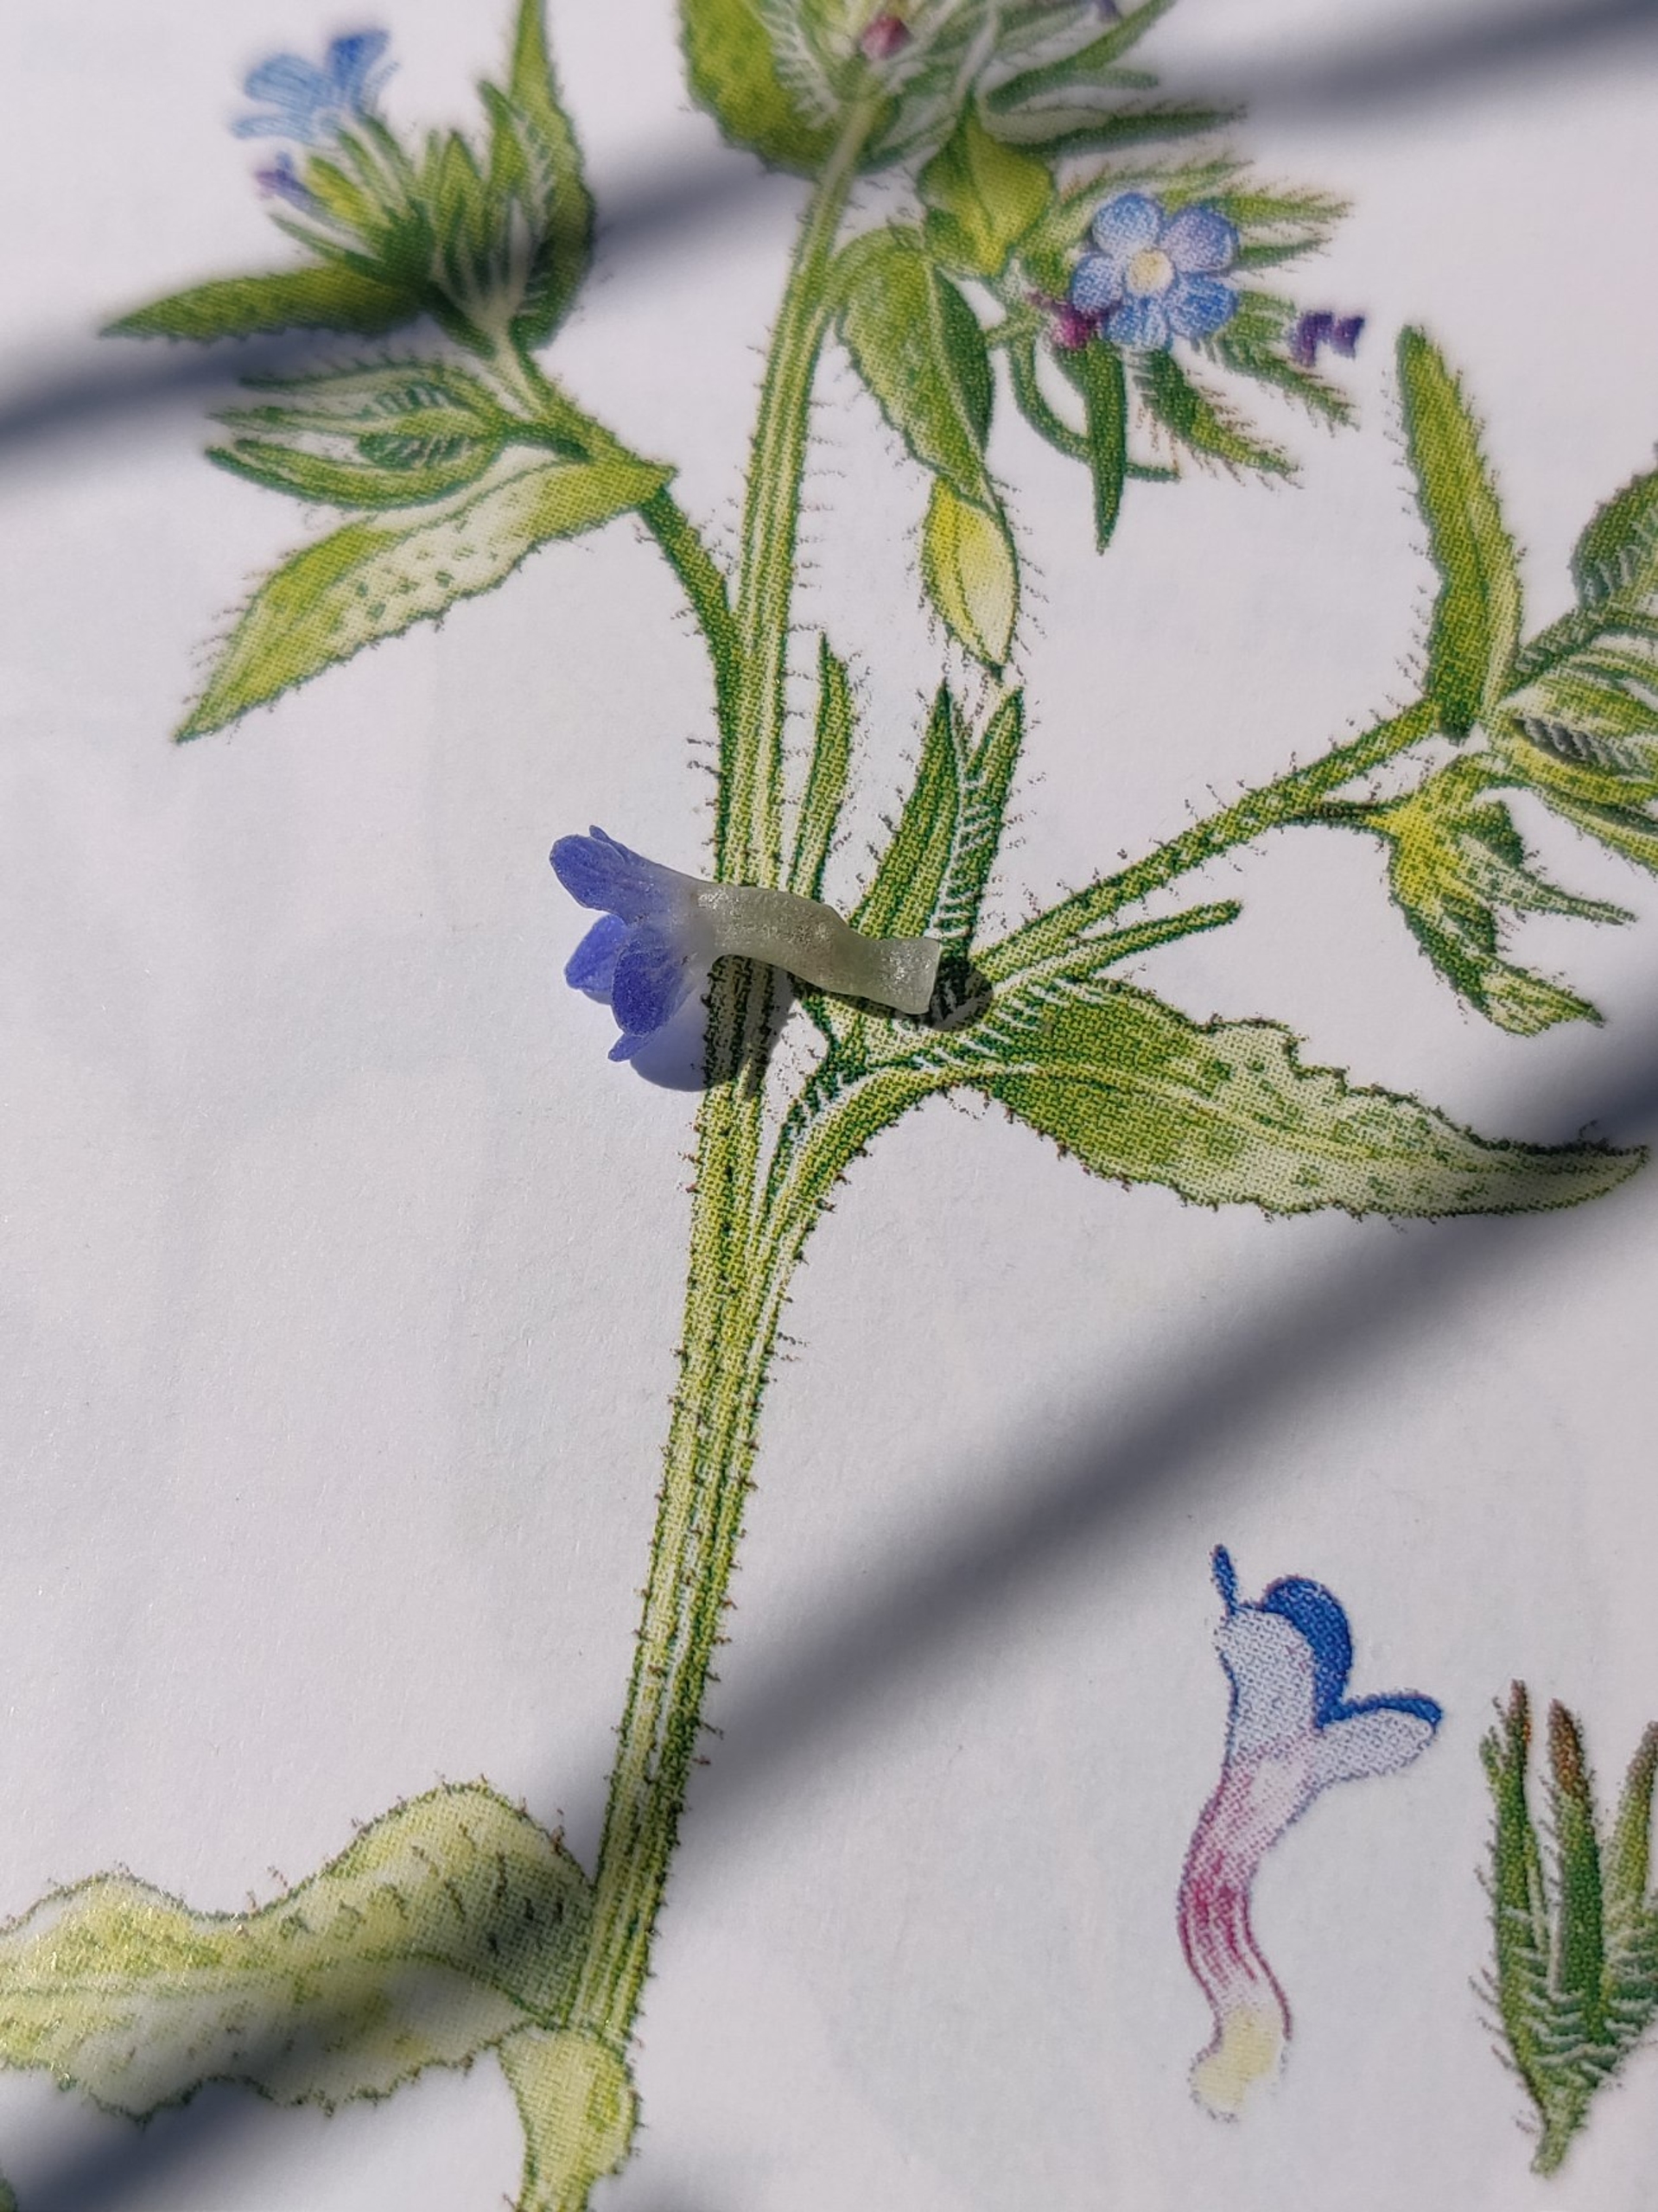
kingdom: Plantae
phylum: Tracheophyta
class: Magnoliopsida
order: Boraginales
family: Boraginaceae
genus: Lycopsis
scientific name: Lycopsis arvensis
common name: Krumhals
